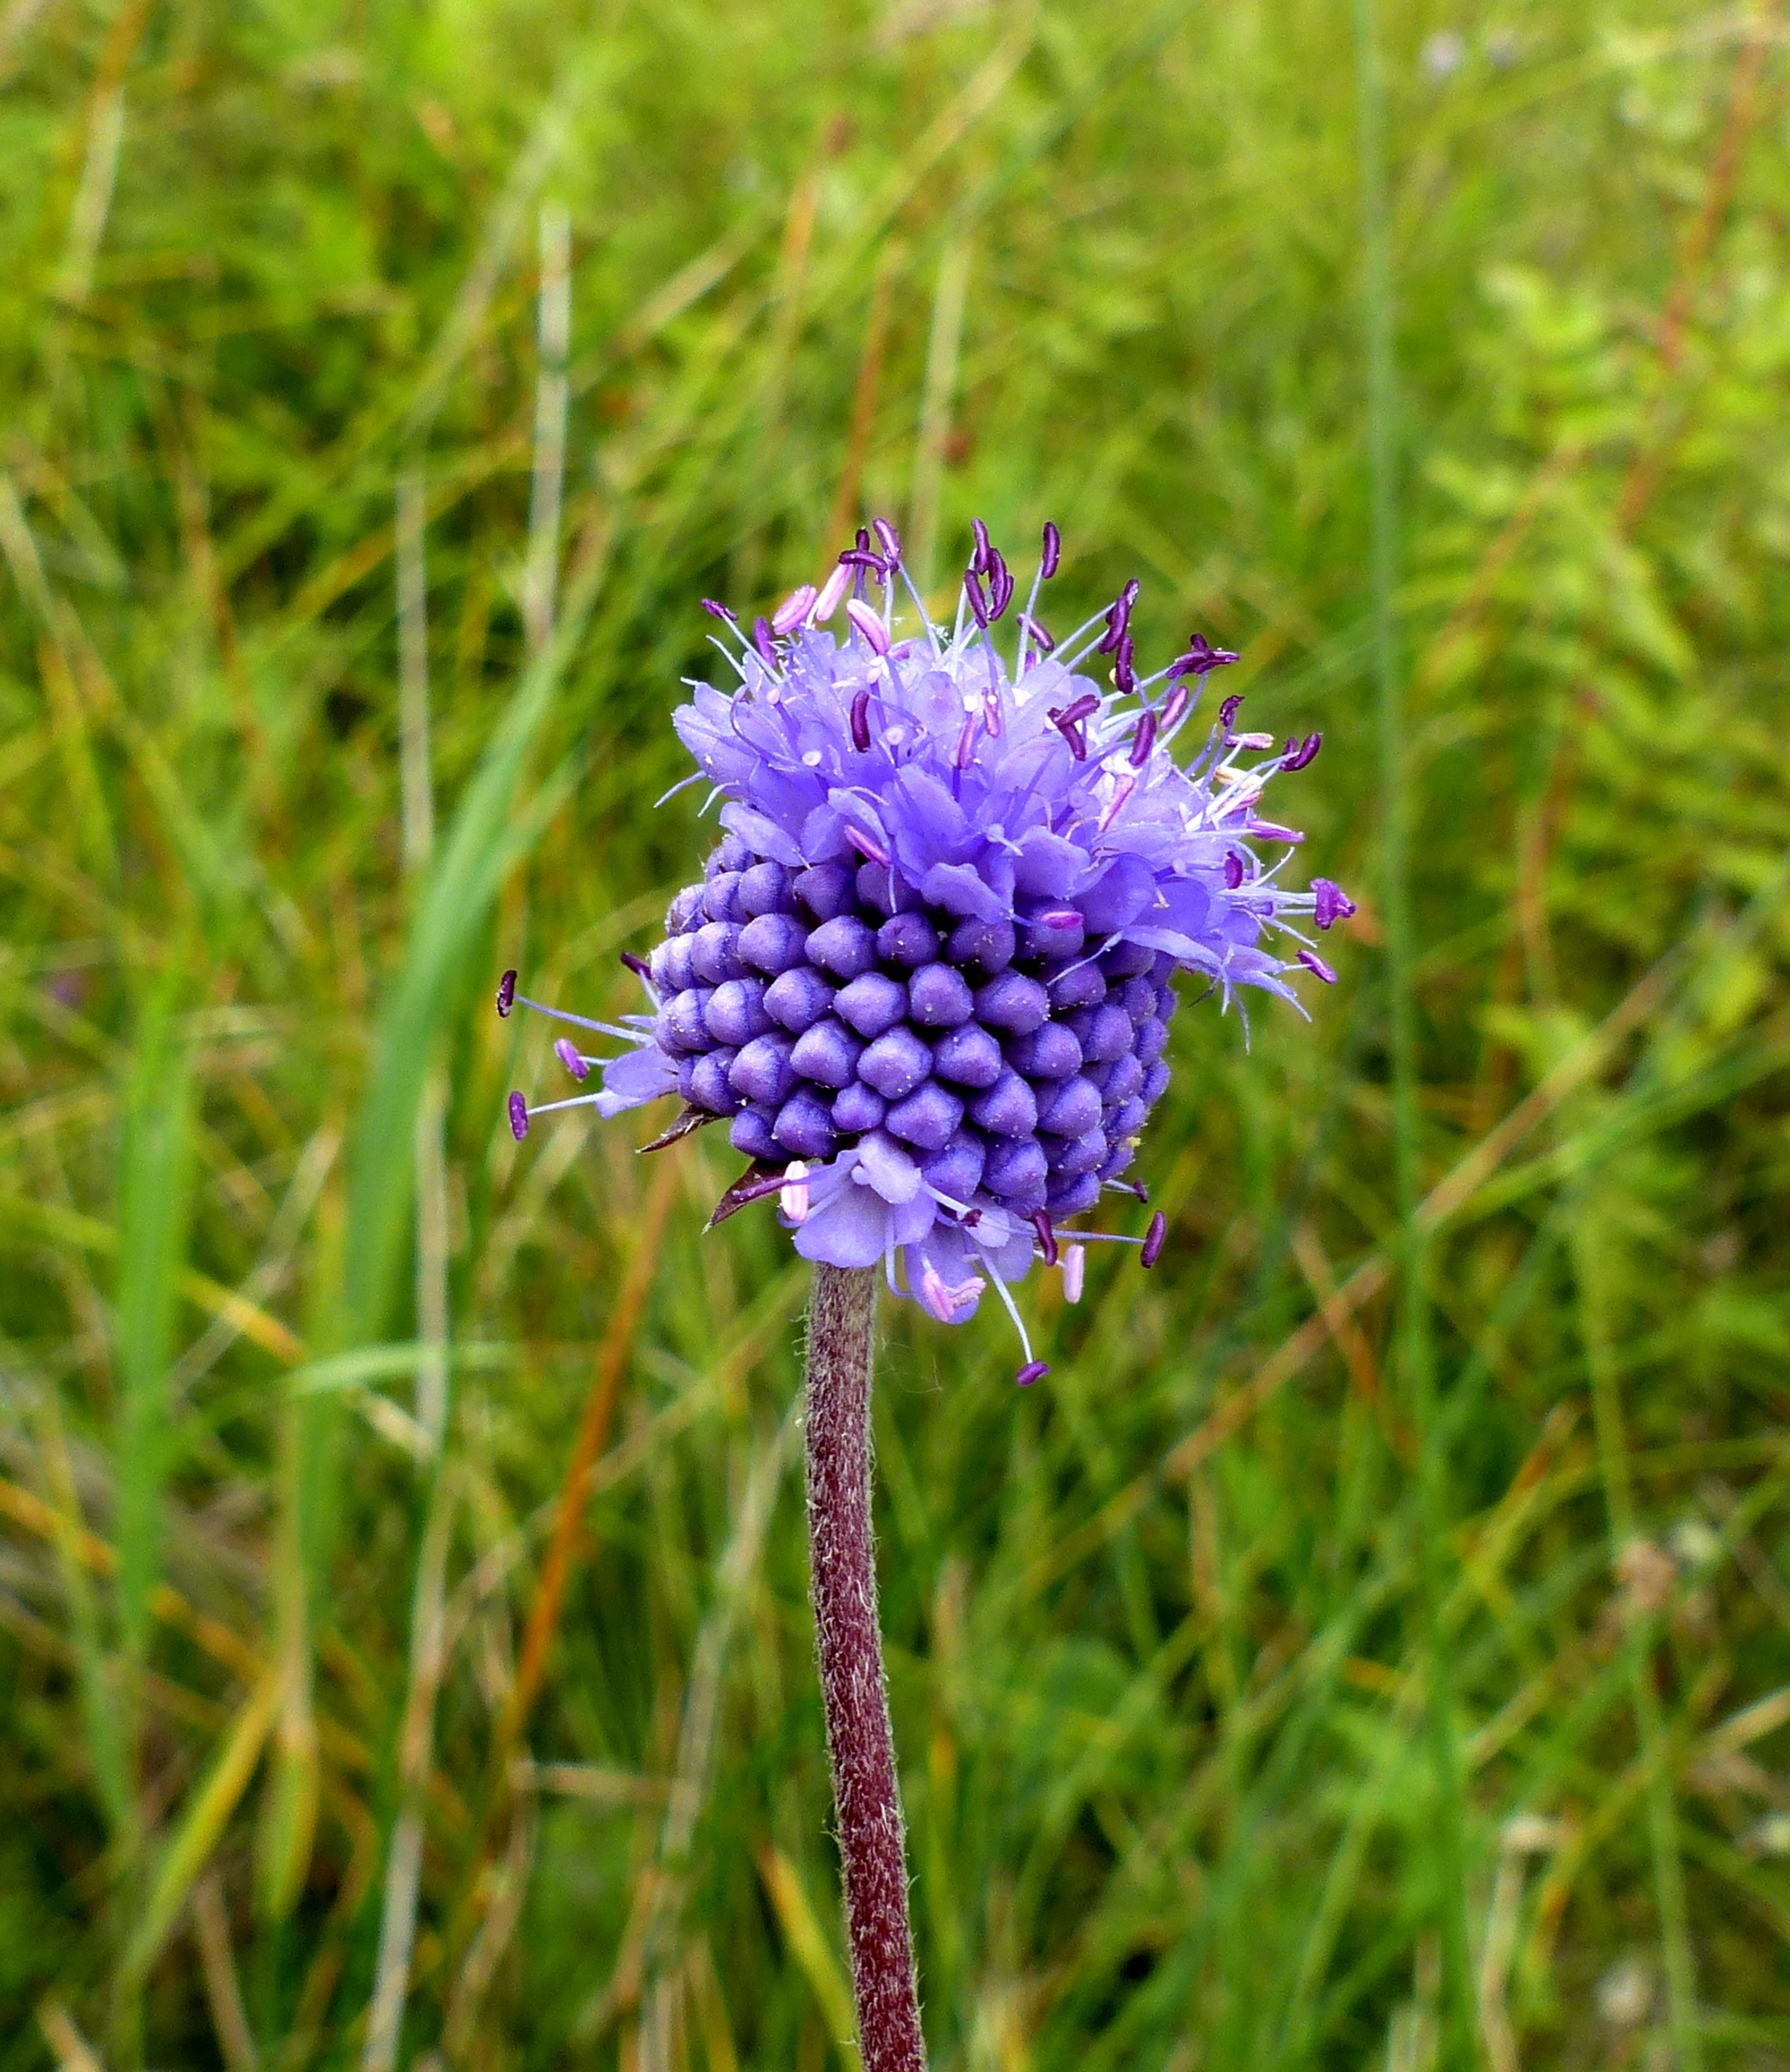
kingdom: Plantae
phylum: Tracheophyta
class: Magnoliopsida
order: Dipsacales
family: Caprifoliaceae
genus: Succisa
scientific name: Succisa pratensis
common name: Djævelsbid
